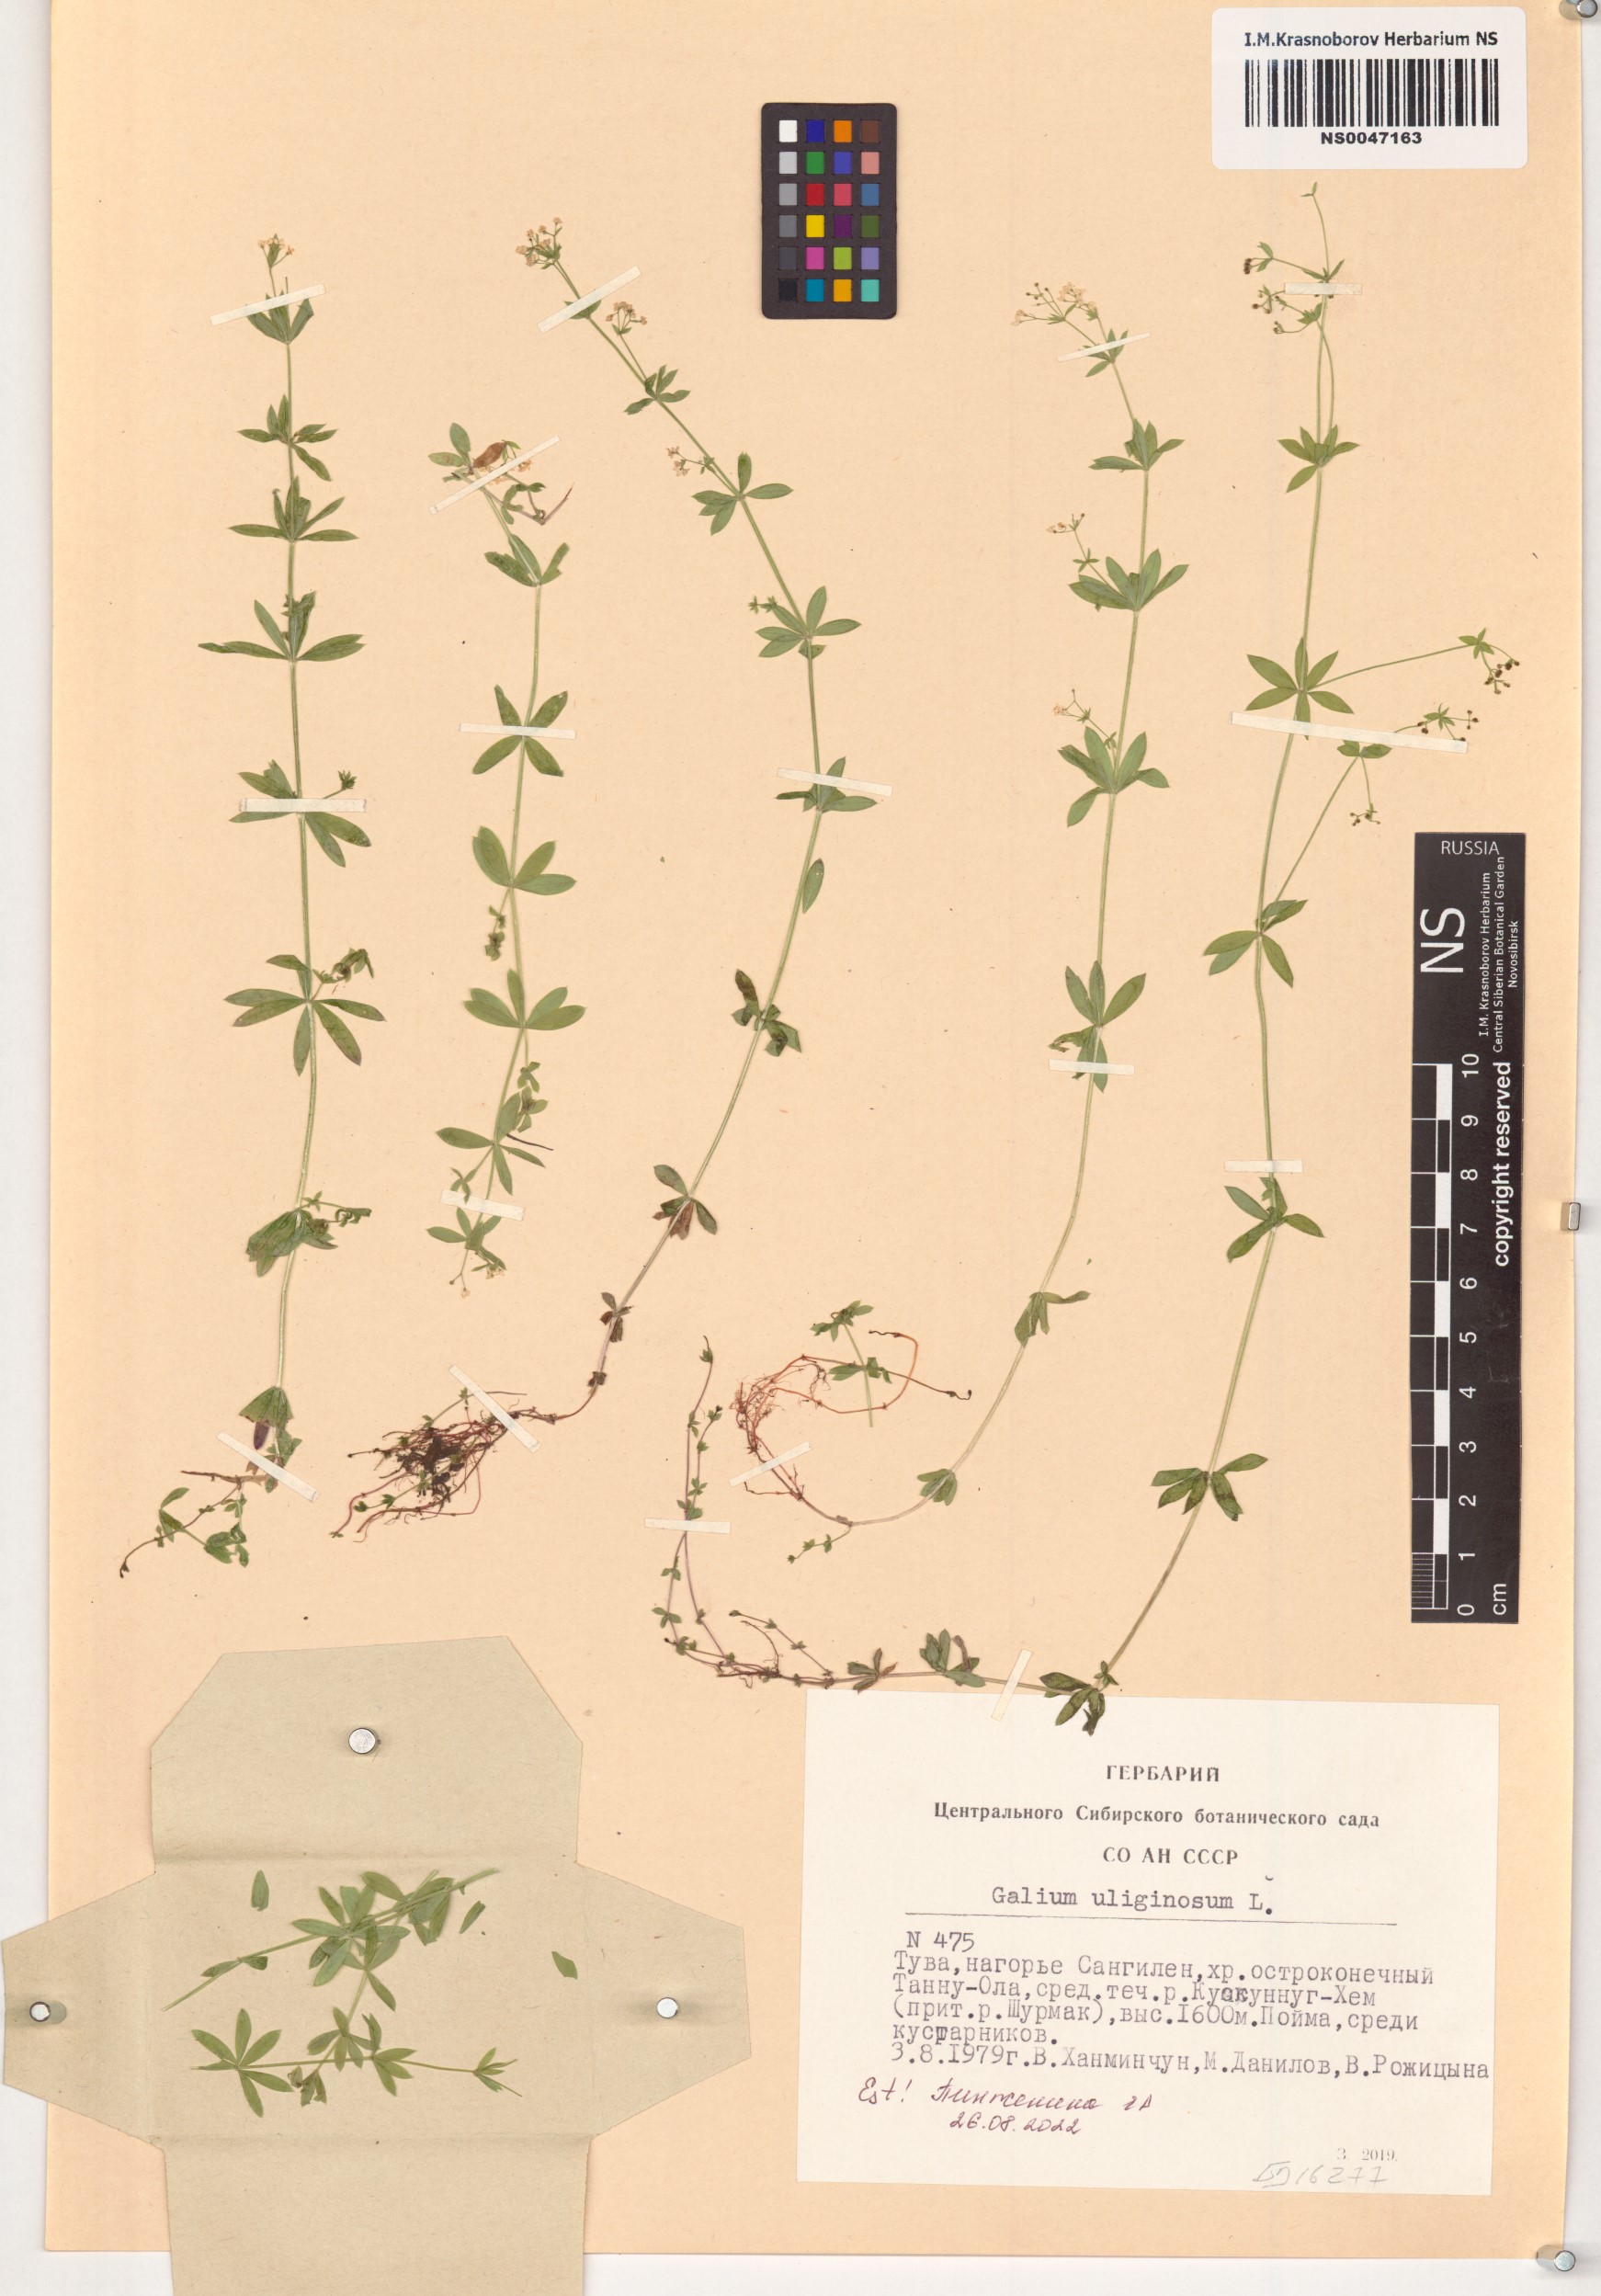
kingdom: Plantae
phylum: Tracheophyta
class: Magnoliopsida
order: Gentianales
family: Rubiaceae
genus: Galium
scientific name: Galium uliginosum
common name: Fen bedstraw
